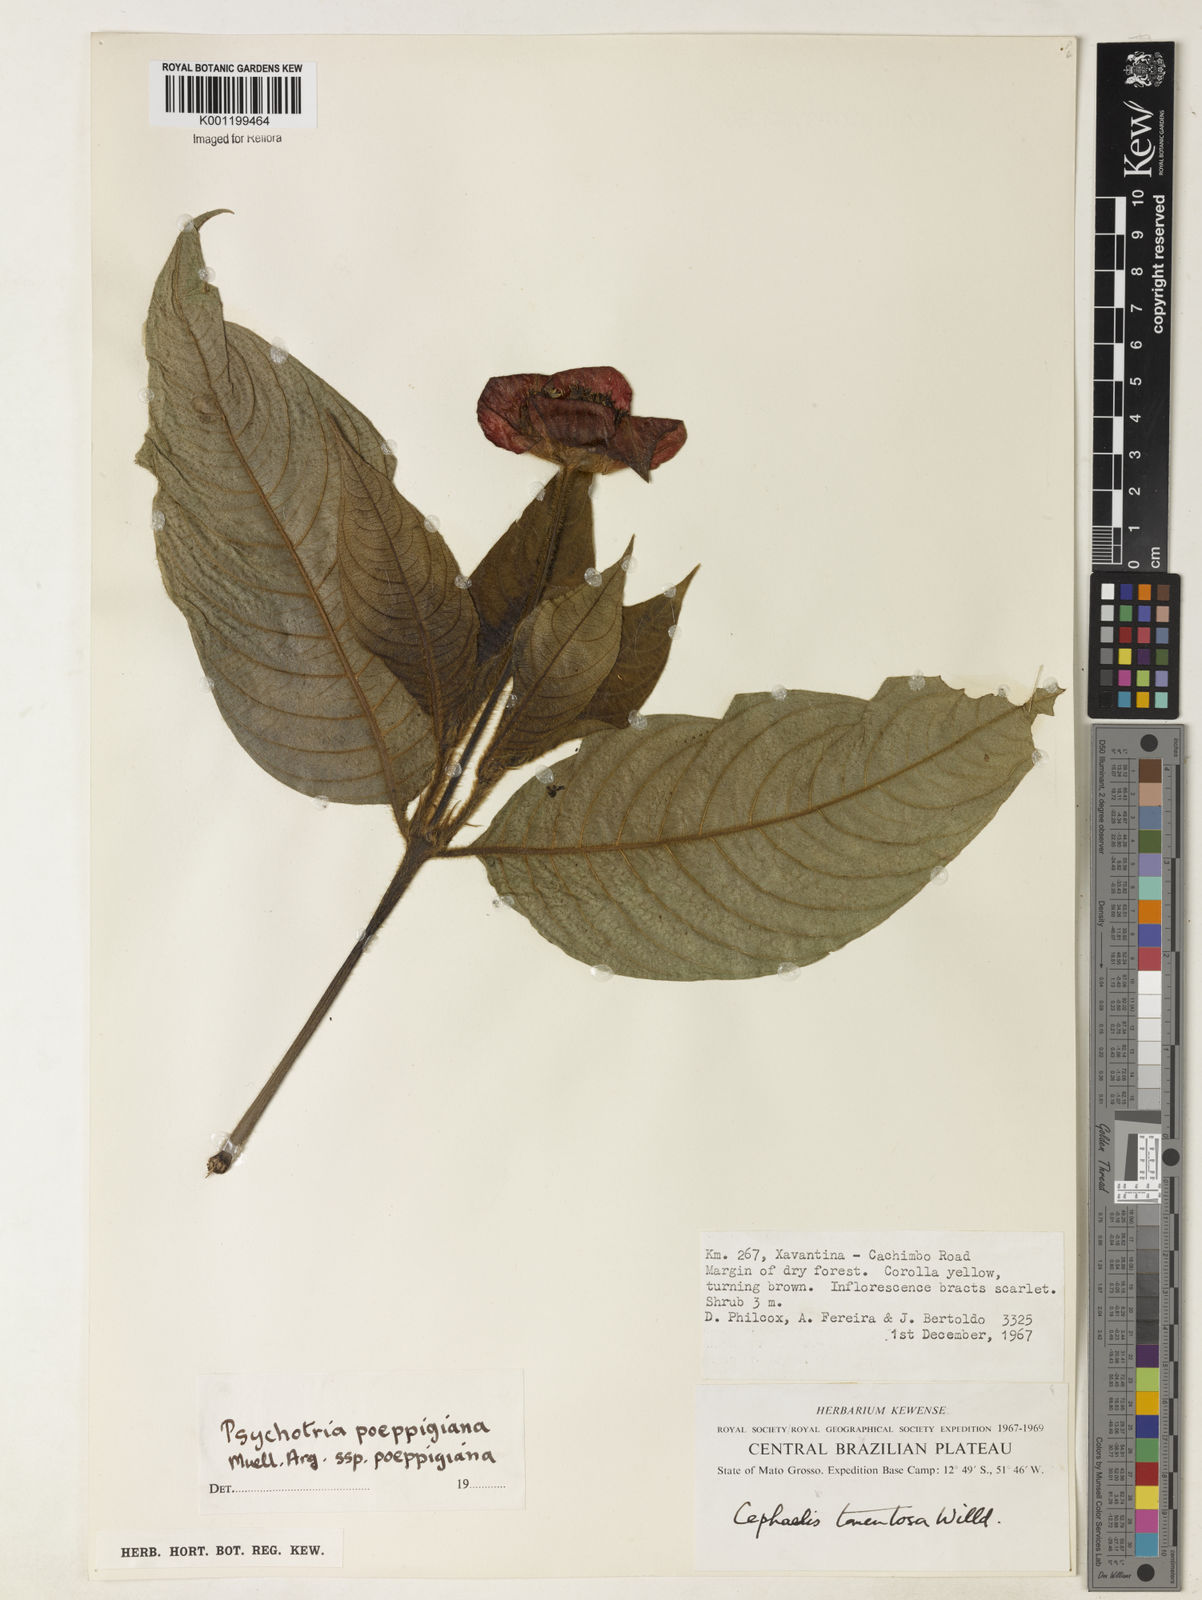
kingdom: Plantae
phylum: Tracheophyta
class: Magnoliopsida
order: Gentianales
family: Rubiaceae
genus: Psychotria
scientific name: Psychotria
